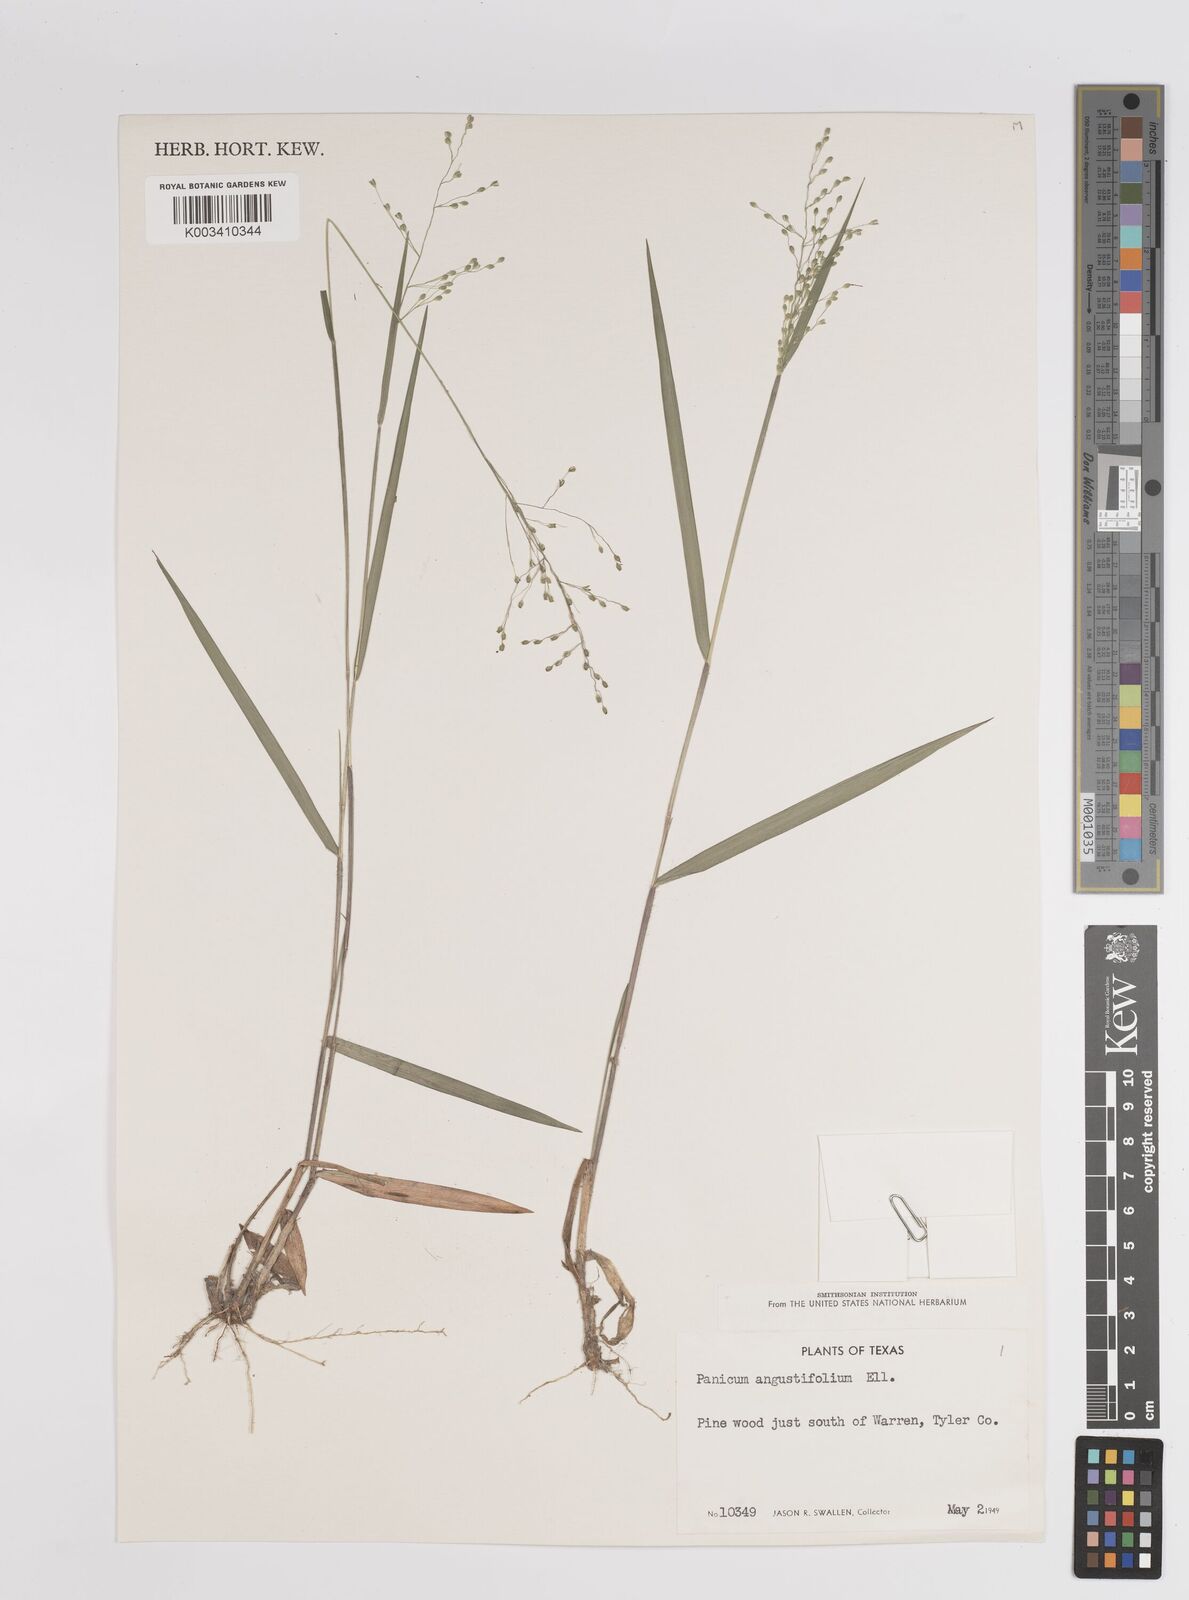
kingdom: Plantae
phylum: Tracheophyta
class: Liliopsida
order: Poales
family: Poaceae
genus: Dichanthelium
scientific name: Dichanthelium angustifolium
